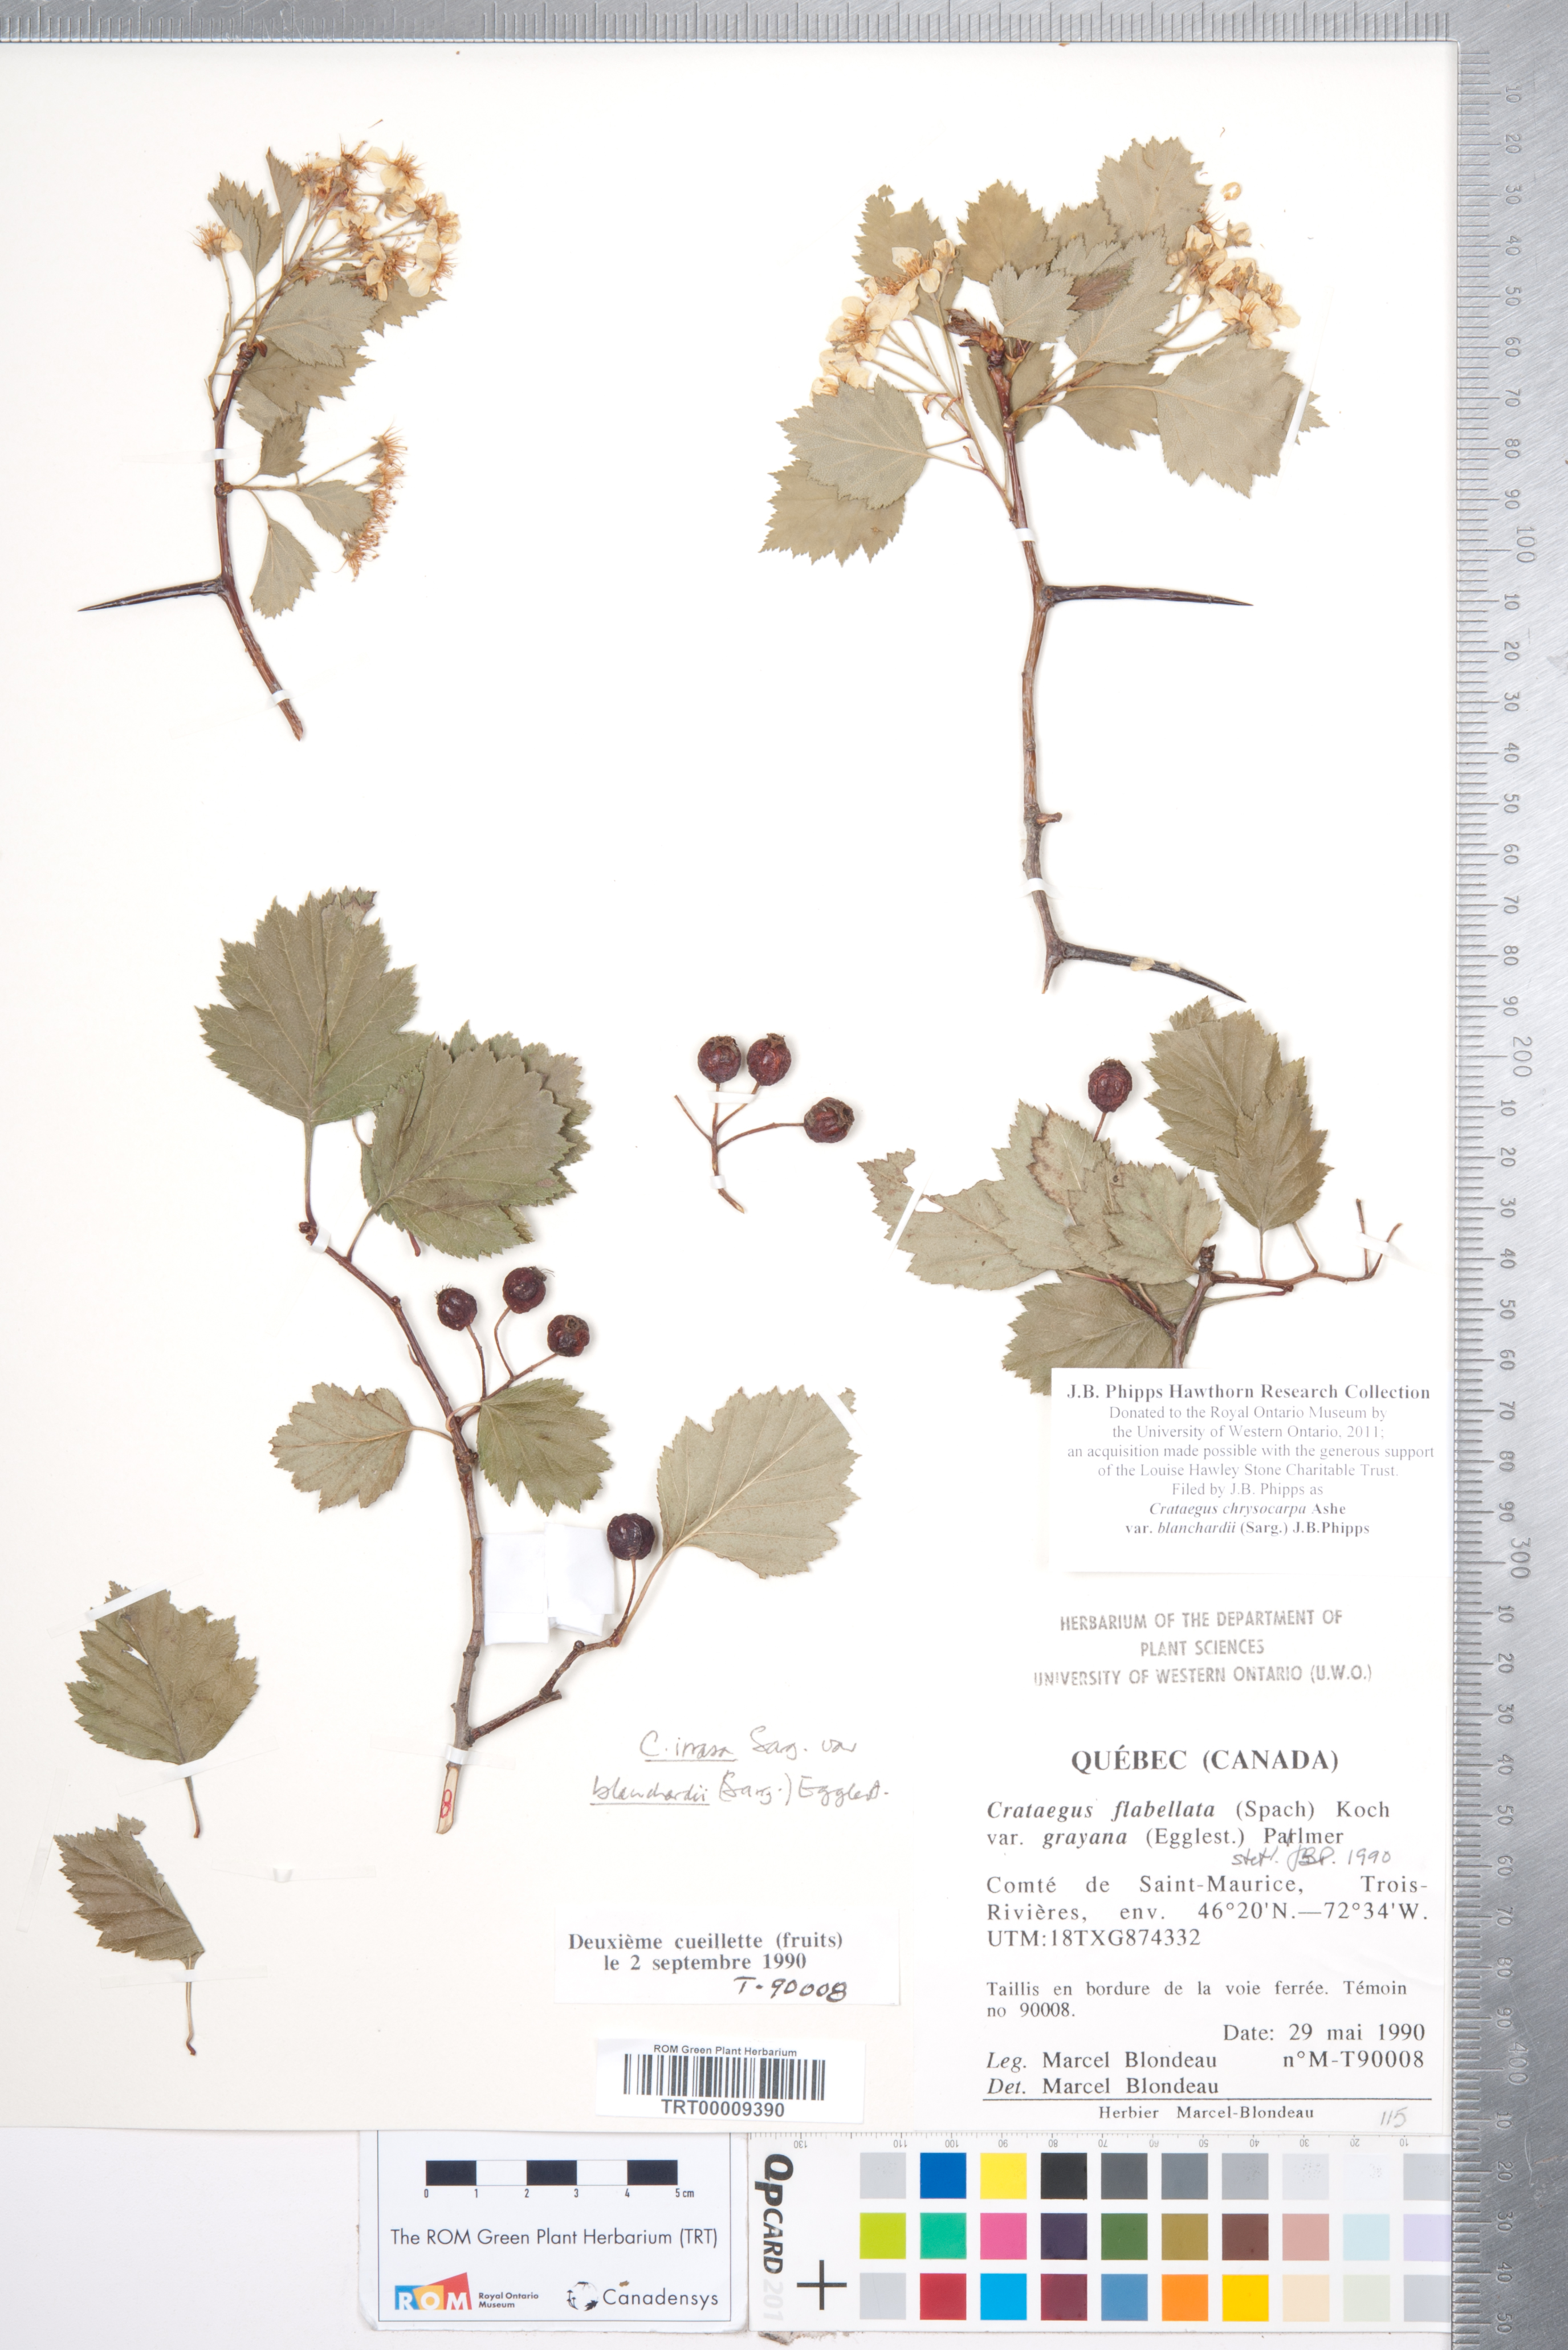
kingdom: Plantae
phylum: Tracheophyta
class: Magnoliopsida
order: Rosales
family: Rosaceae
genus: Crataegus
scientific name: Crataegus chrysocarpa
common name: Fire-berry hawthorn
